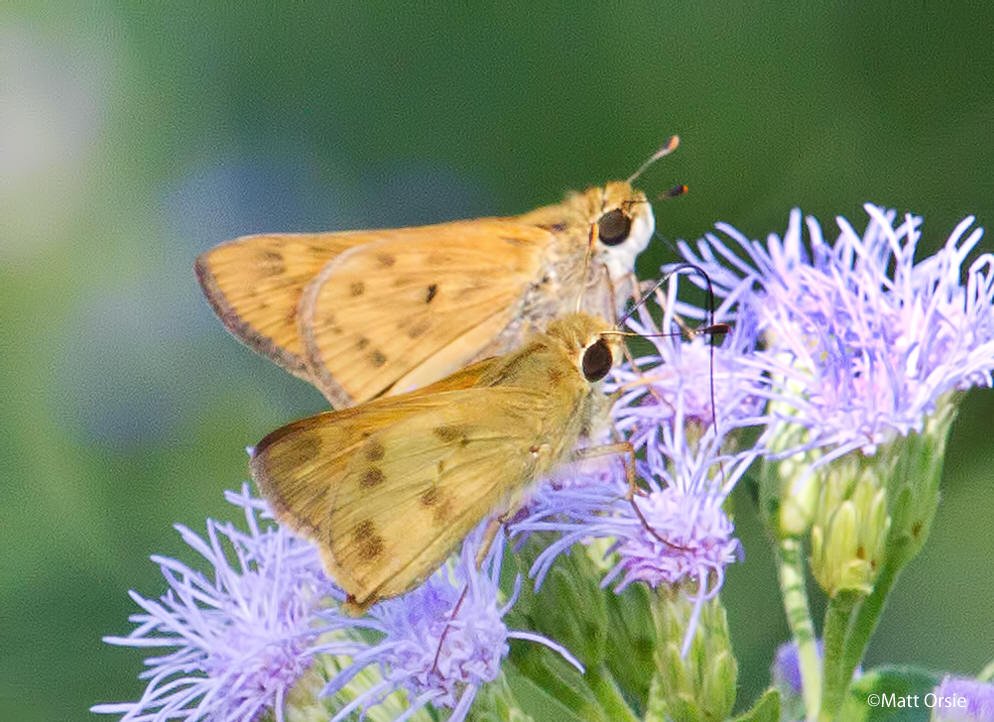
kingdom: Animalia
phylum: Arthropoda
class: Insecta
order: Lepidoptera
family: Hesperiidae
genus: Hylephila
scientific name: Hylephila phyleus
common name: Fiery Skipper
